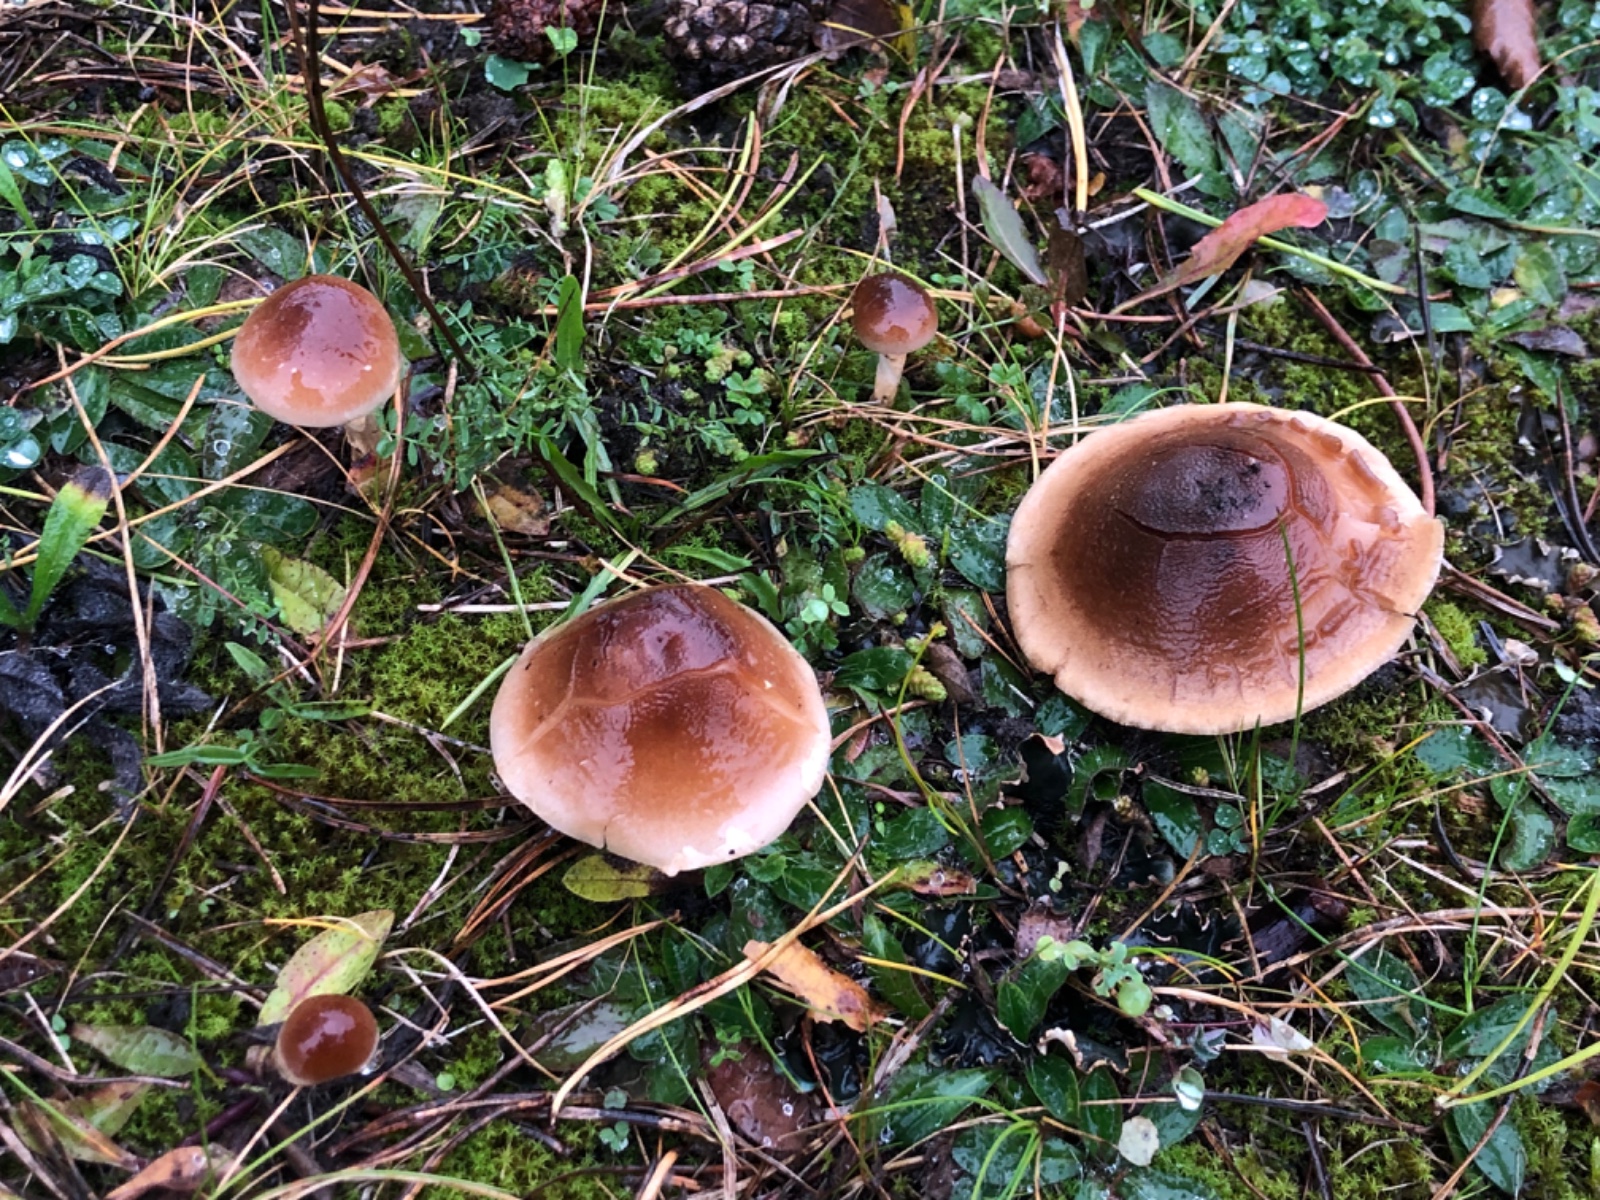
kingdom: Fungi
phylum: Basidiomycota
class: Agaricomycetes
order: Agaricales
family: Hymenogastraceae
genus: Hebeloma
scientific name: Hebeloma mesophaeum
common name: lerbrun tåreblad
